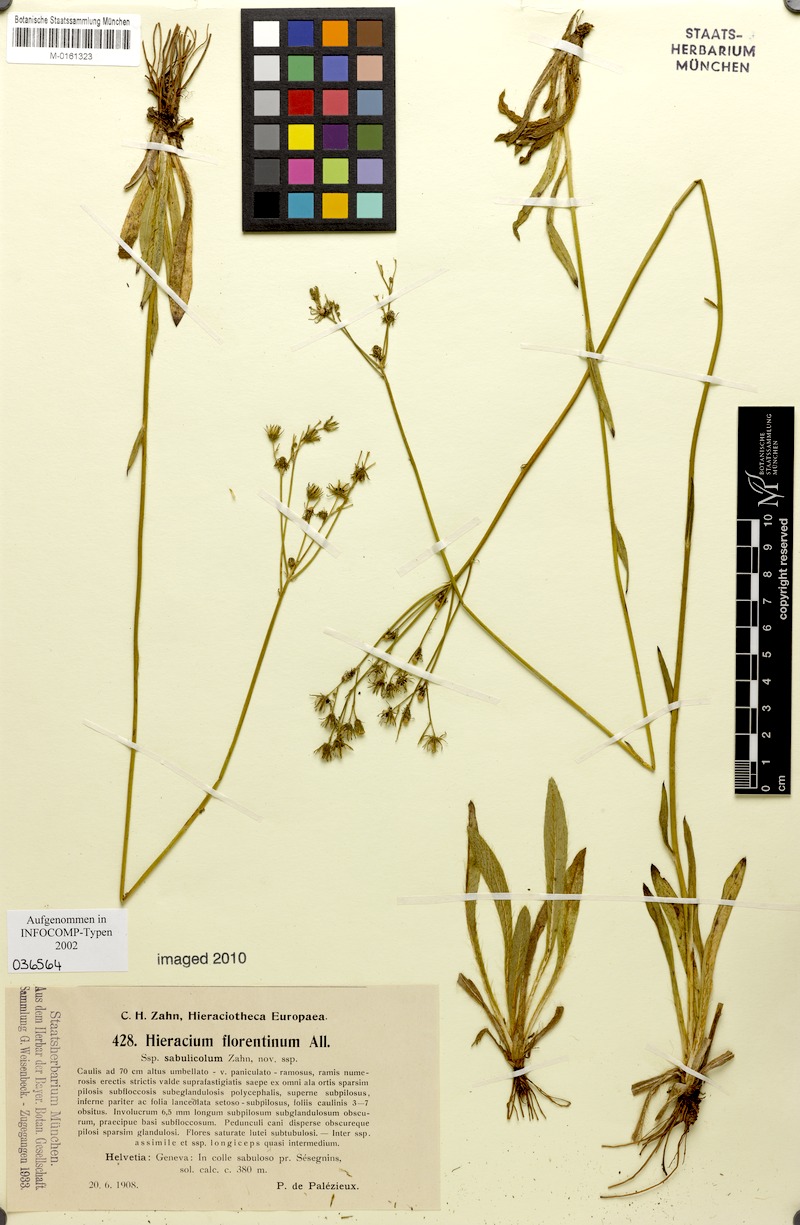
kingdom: Plantae
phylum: Tracheophyta
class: Magnoliopsida
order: Asterales
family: Asteraceae
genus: Pilosella
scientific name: Pilosella piloselloides
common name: Glaucous king-devil
